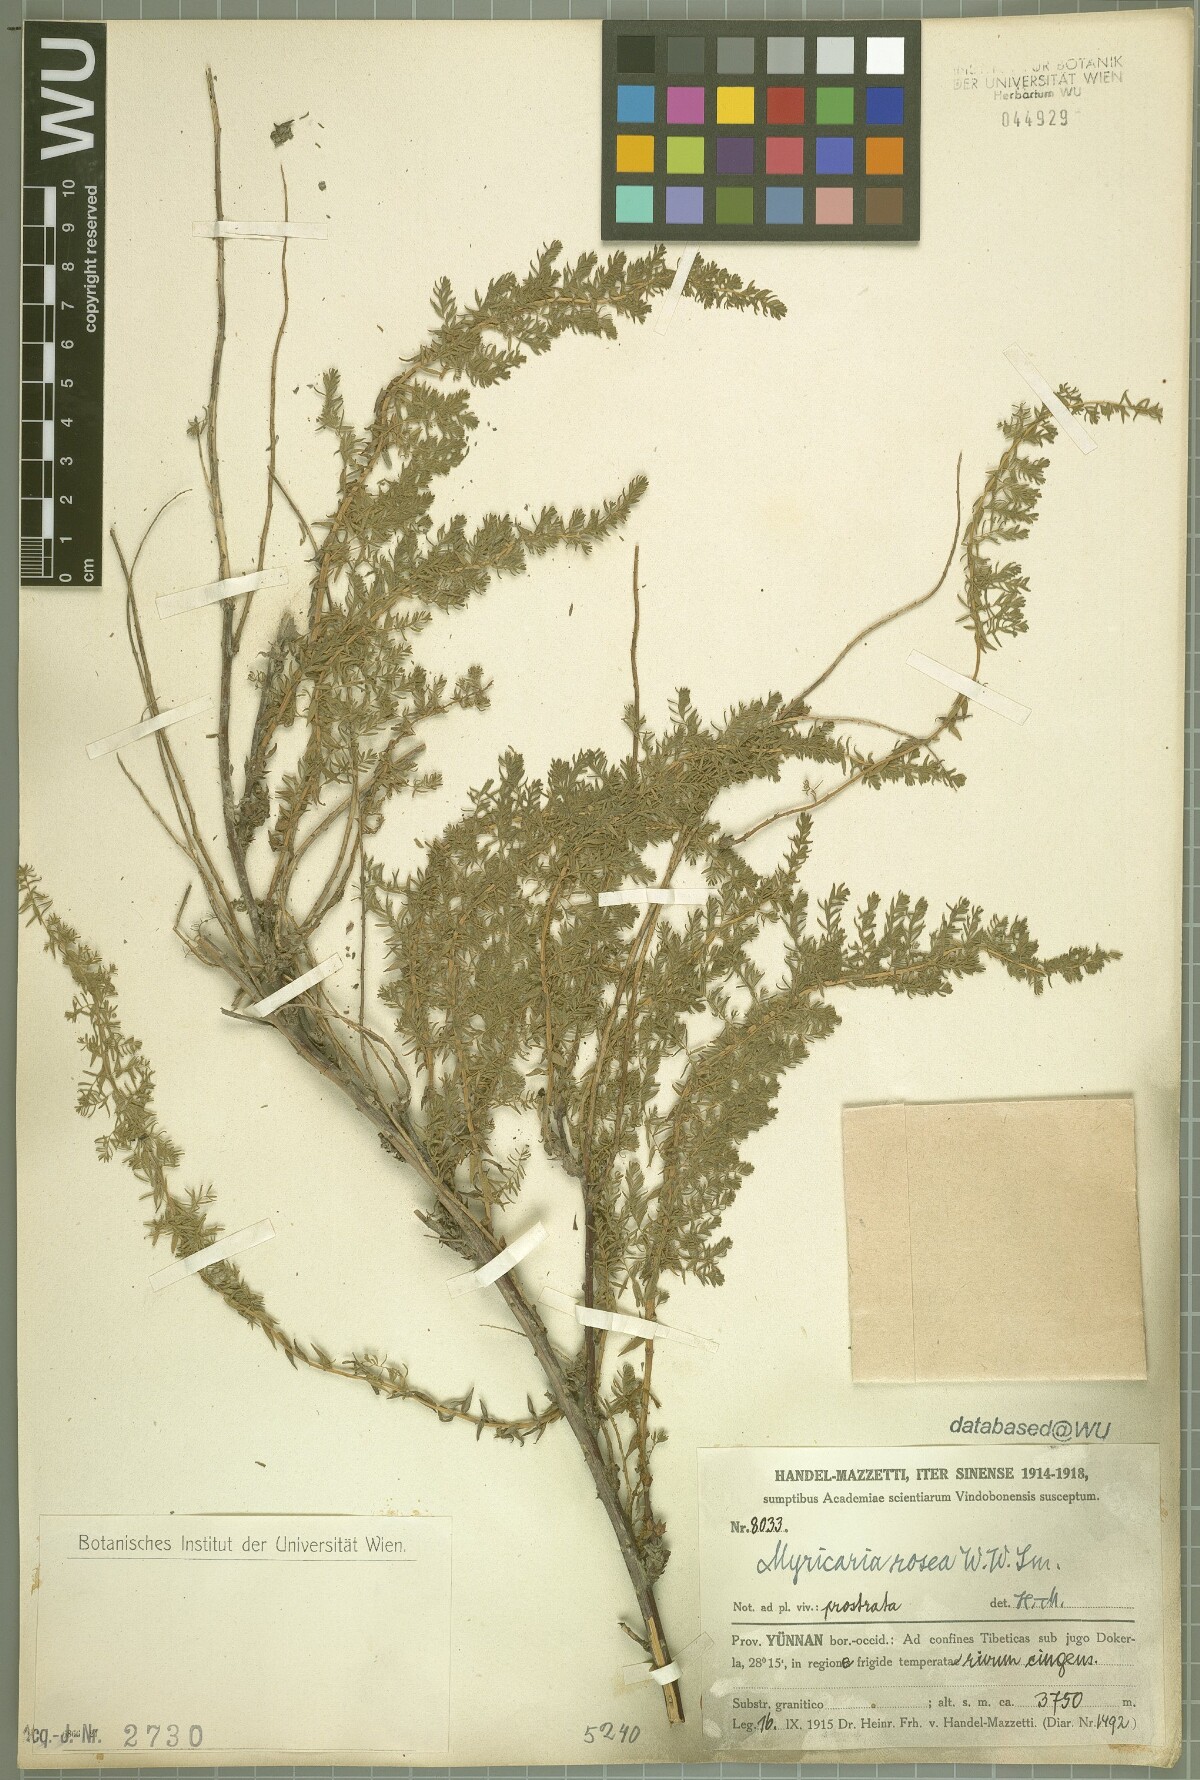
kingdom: Plantae
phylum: Tracheophyta
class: Magnoliopsida
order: Caryophyllales
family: Tamaricaceae
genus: Myricaria
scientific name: Myricaria rosea
